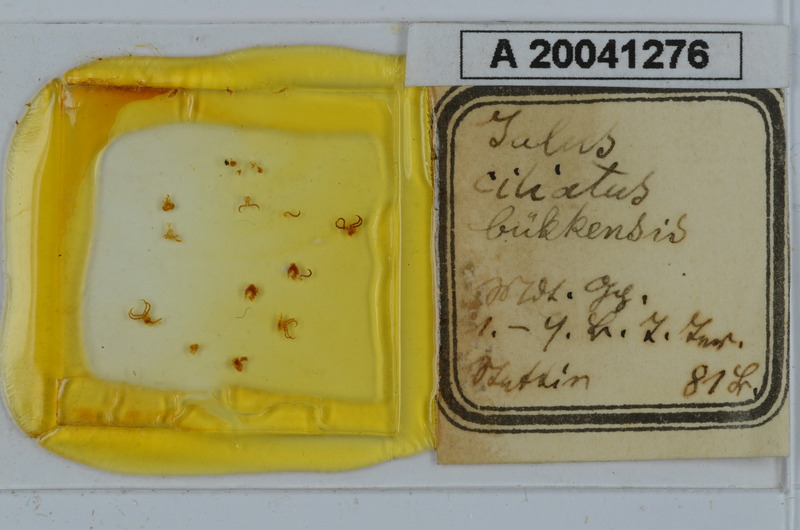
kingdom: Animalia
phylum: Arthropoda
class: Diplopoda
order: Julida
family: Julidae
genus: Leptoiulus
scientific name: Leptoiulus proximus
